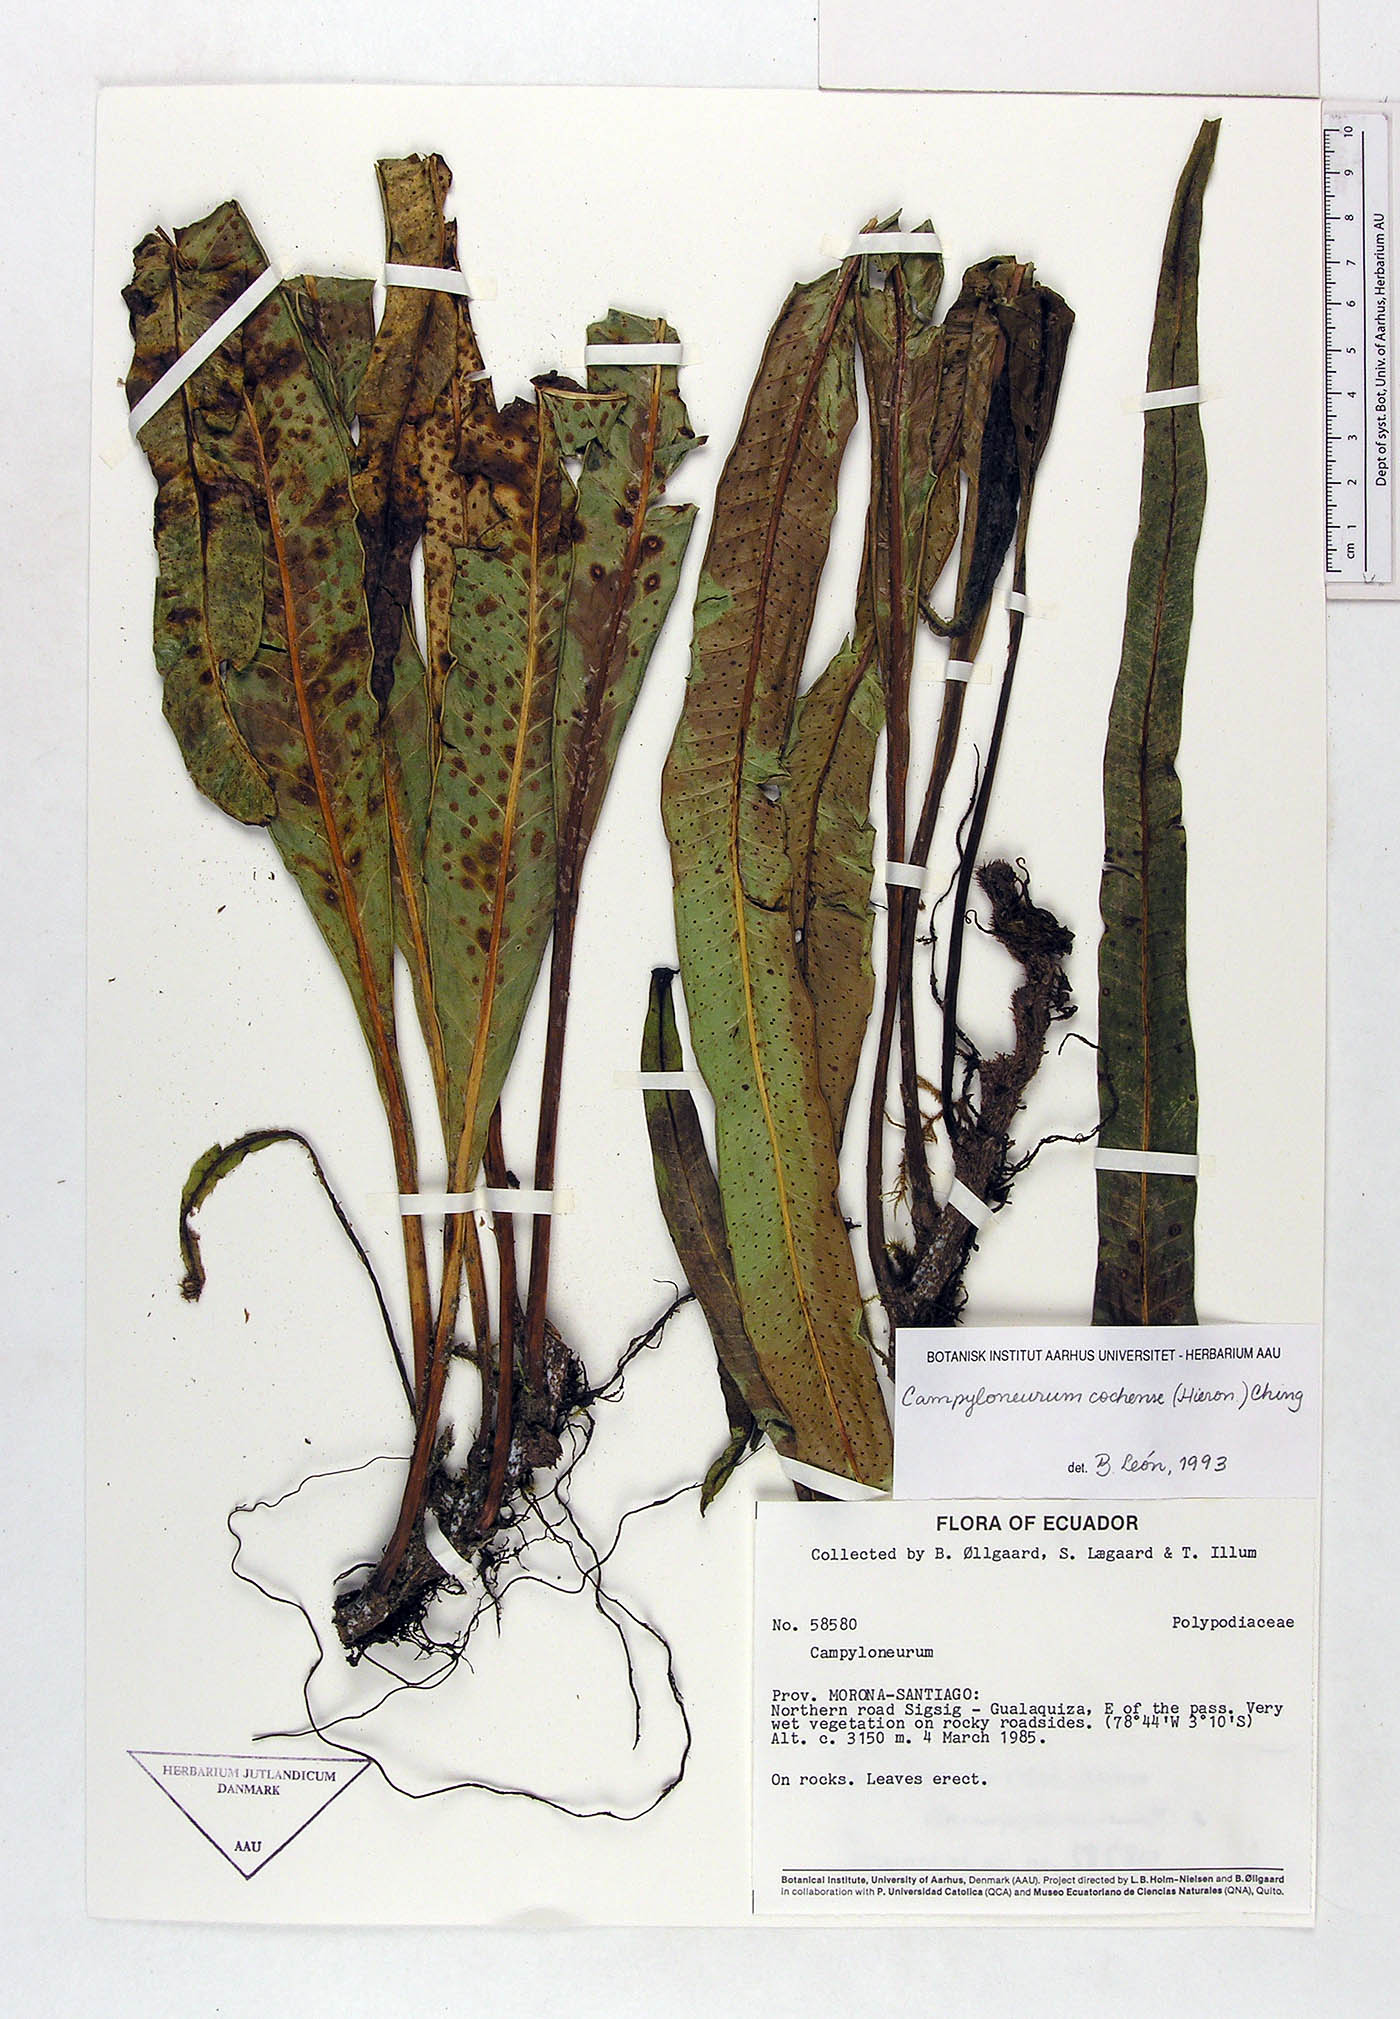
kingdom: Plantae
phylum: Tracheophyta
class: Polypodiopsida
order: Polypodiales
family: Polypodiaceae
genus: Campyloneurum
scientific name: Campyloneurum cochense
